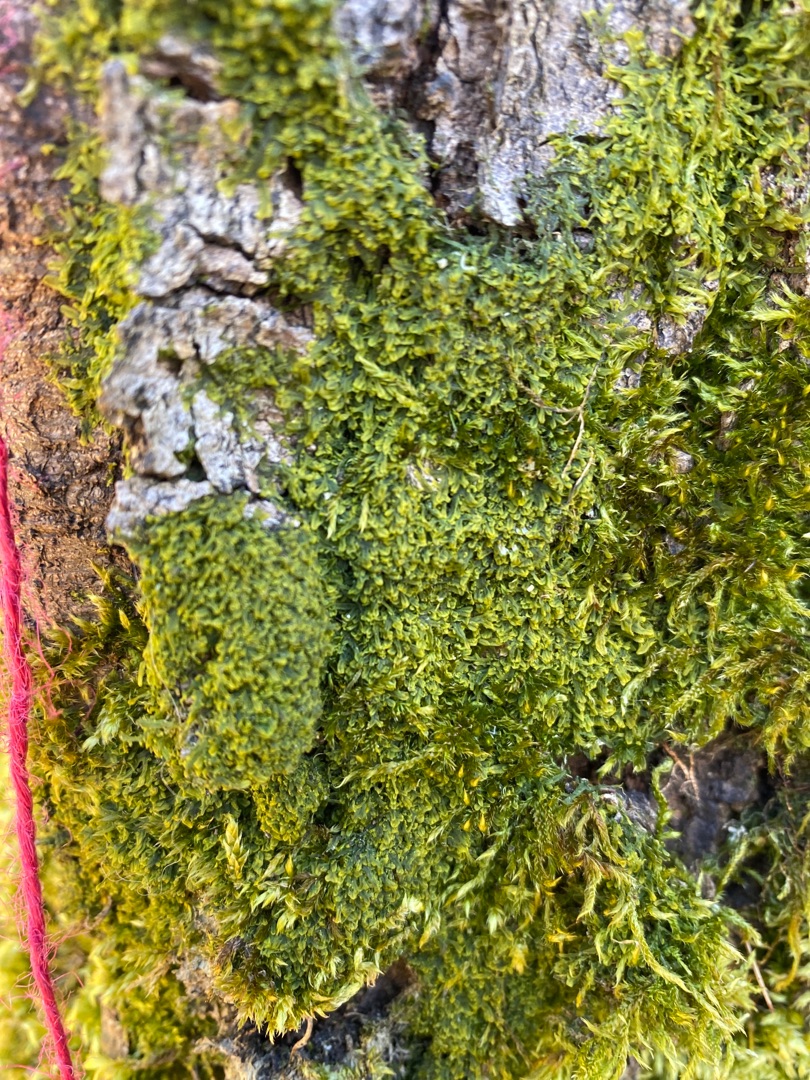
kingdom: Plantae
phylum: Marchantiophyta
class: Jungermanniopsida
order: Metzgeriales
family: Metzgeriaceae
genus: Metzgeria
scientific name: Metzgeria furcata
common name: Almindelig gaffelløv
